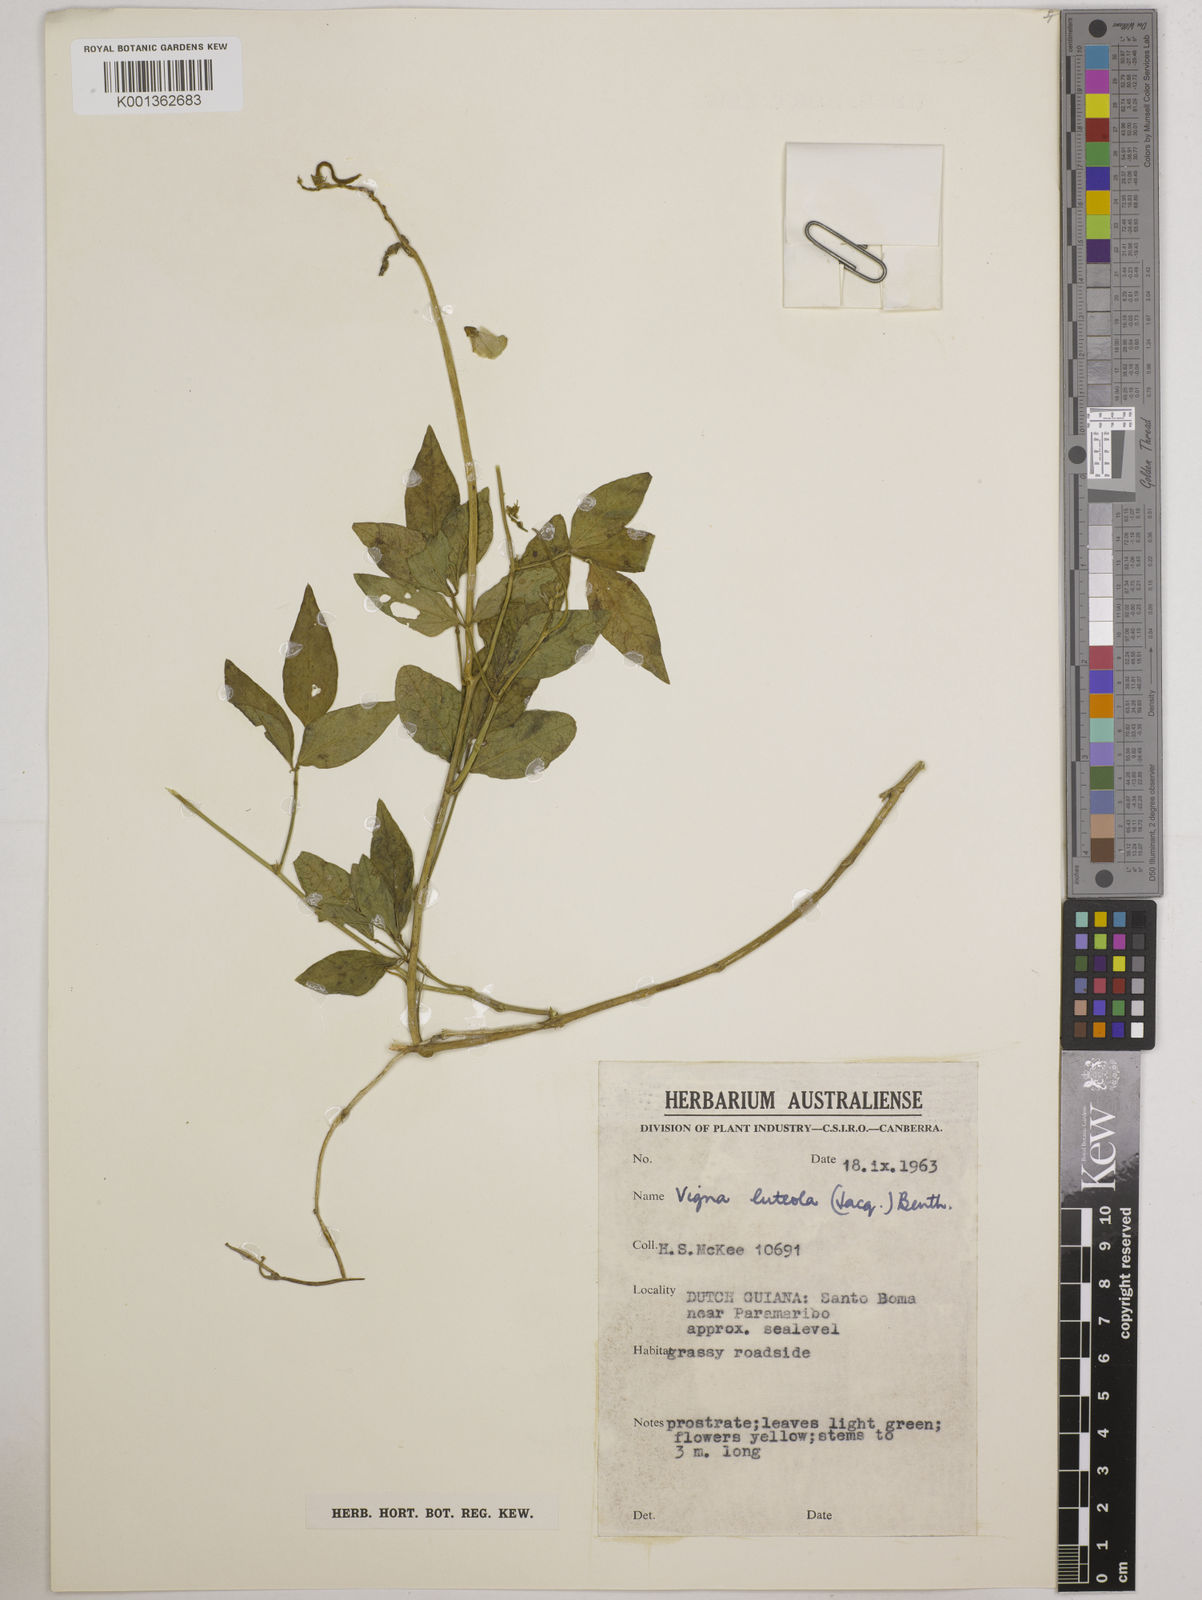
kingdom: Plantae
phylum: Tracheophyta
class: Magnoliopsida
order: Fabales
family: Fabaceae
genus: Vigna
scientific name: Vigna luteola
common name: Hairypod cowpea
